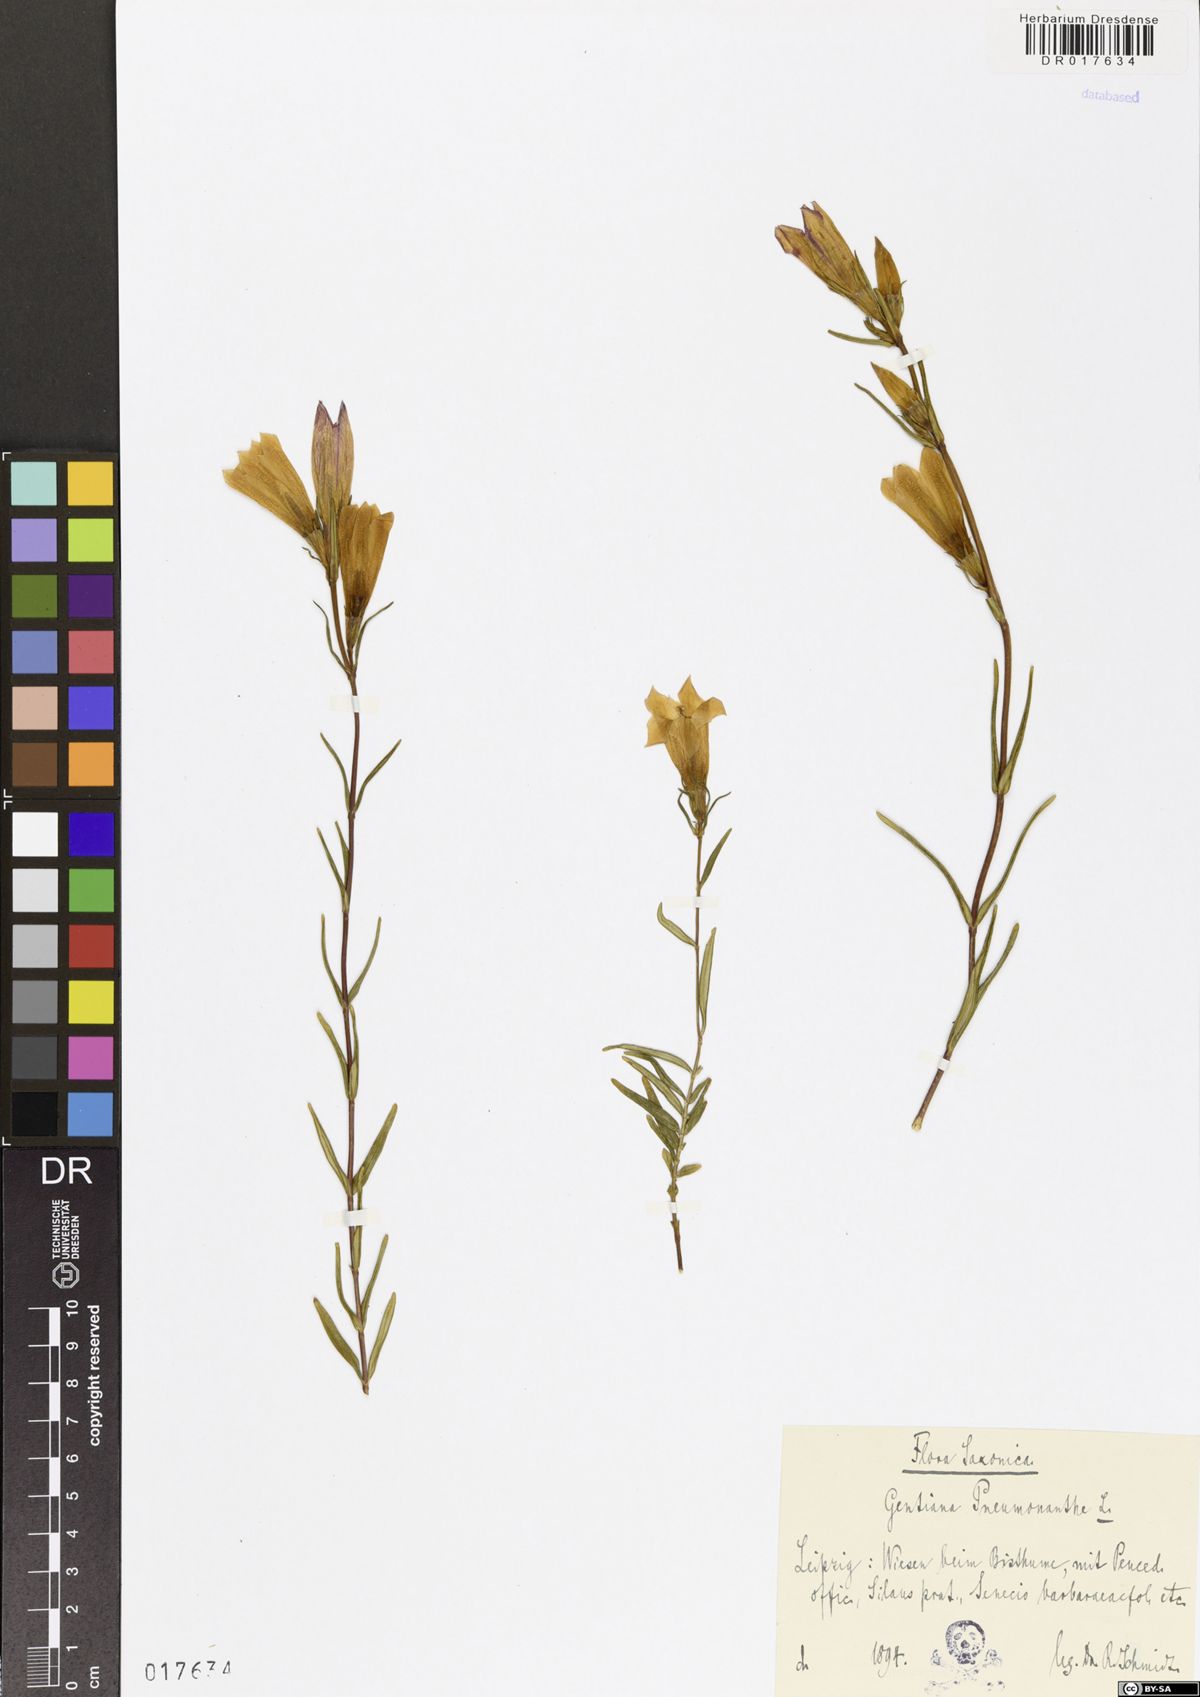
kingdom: Plantae
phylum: Tracheophyta
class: Magnoliopsida
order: Gentianales
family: Gentianaceae
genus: Gentiana
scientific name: Gentiana pneumonanthe
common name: Marsh gentian
